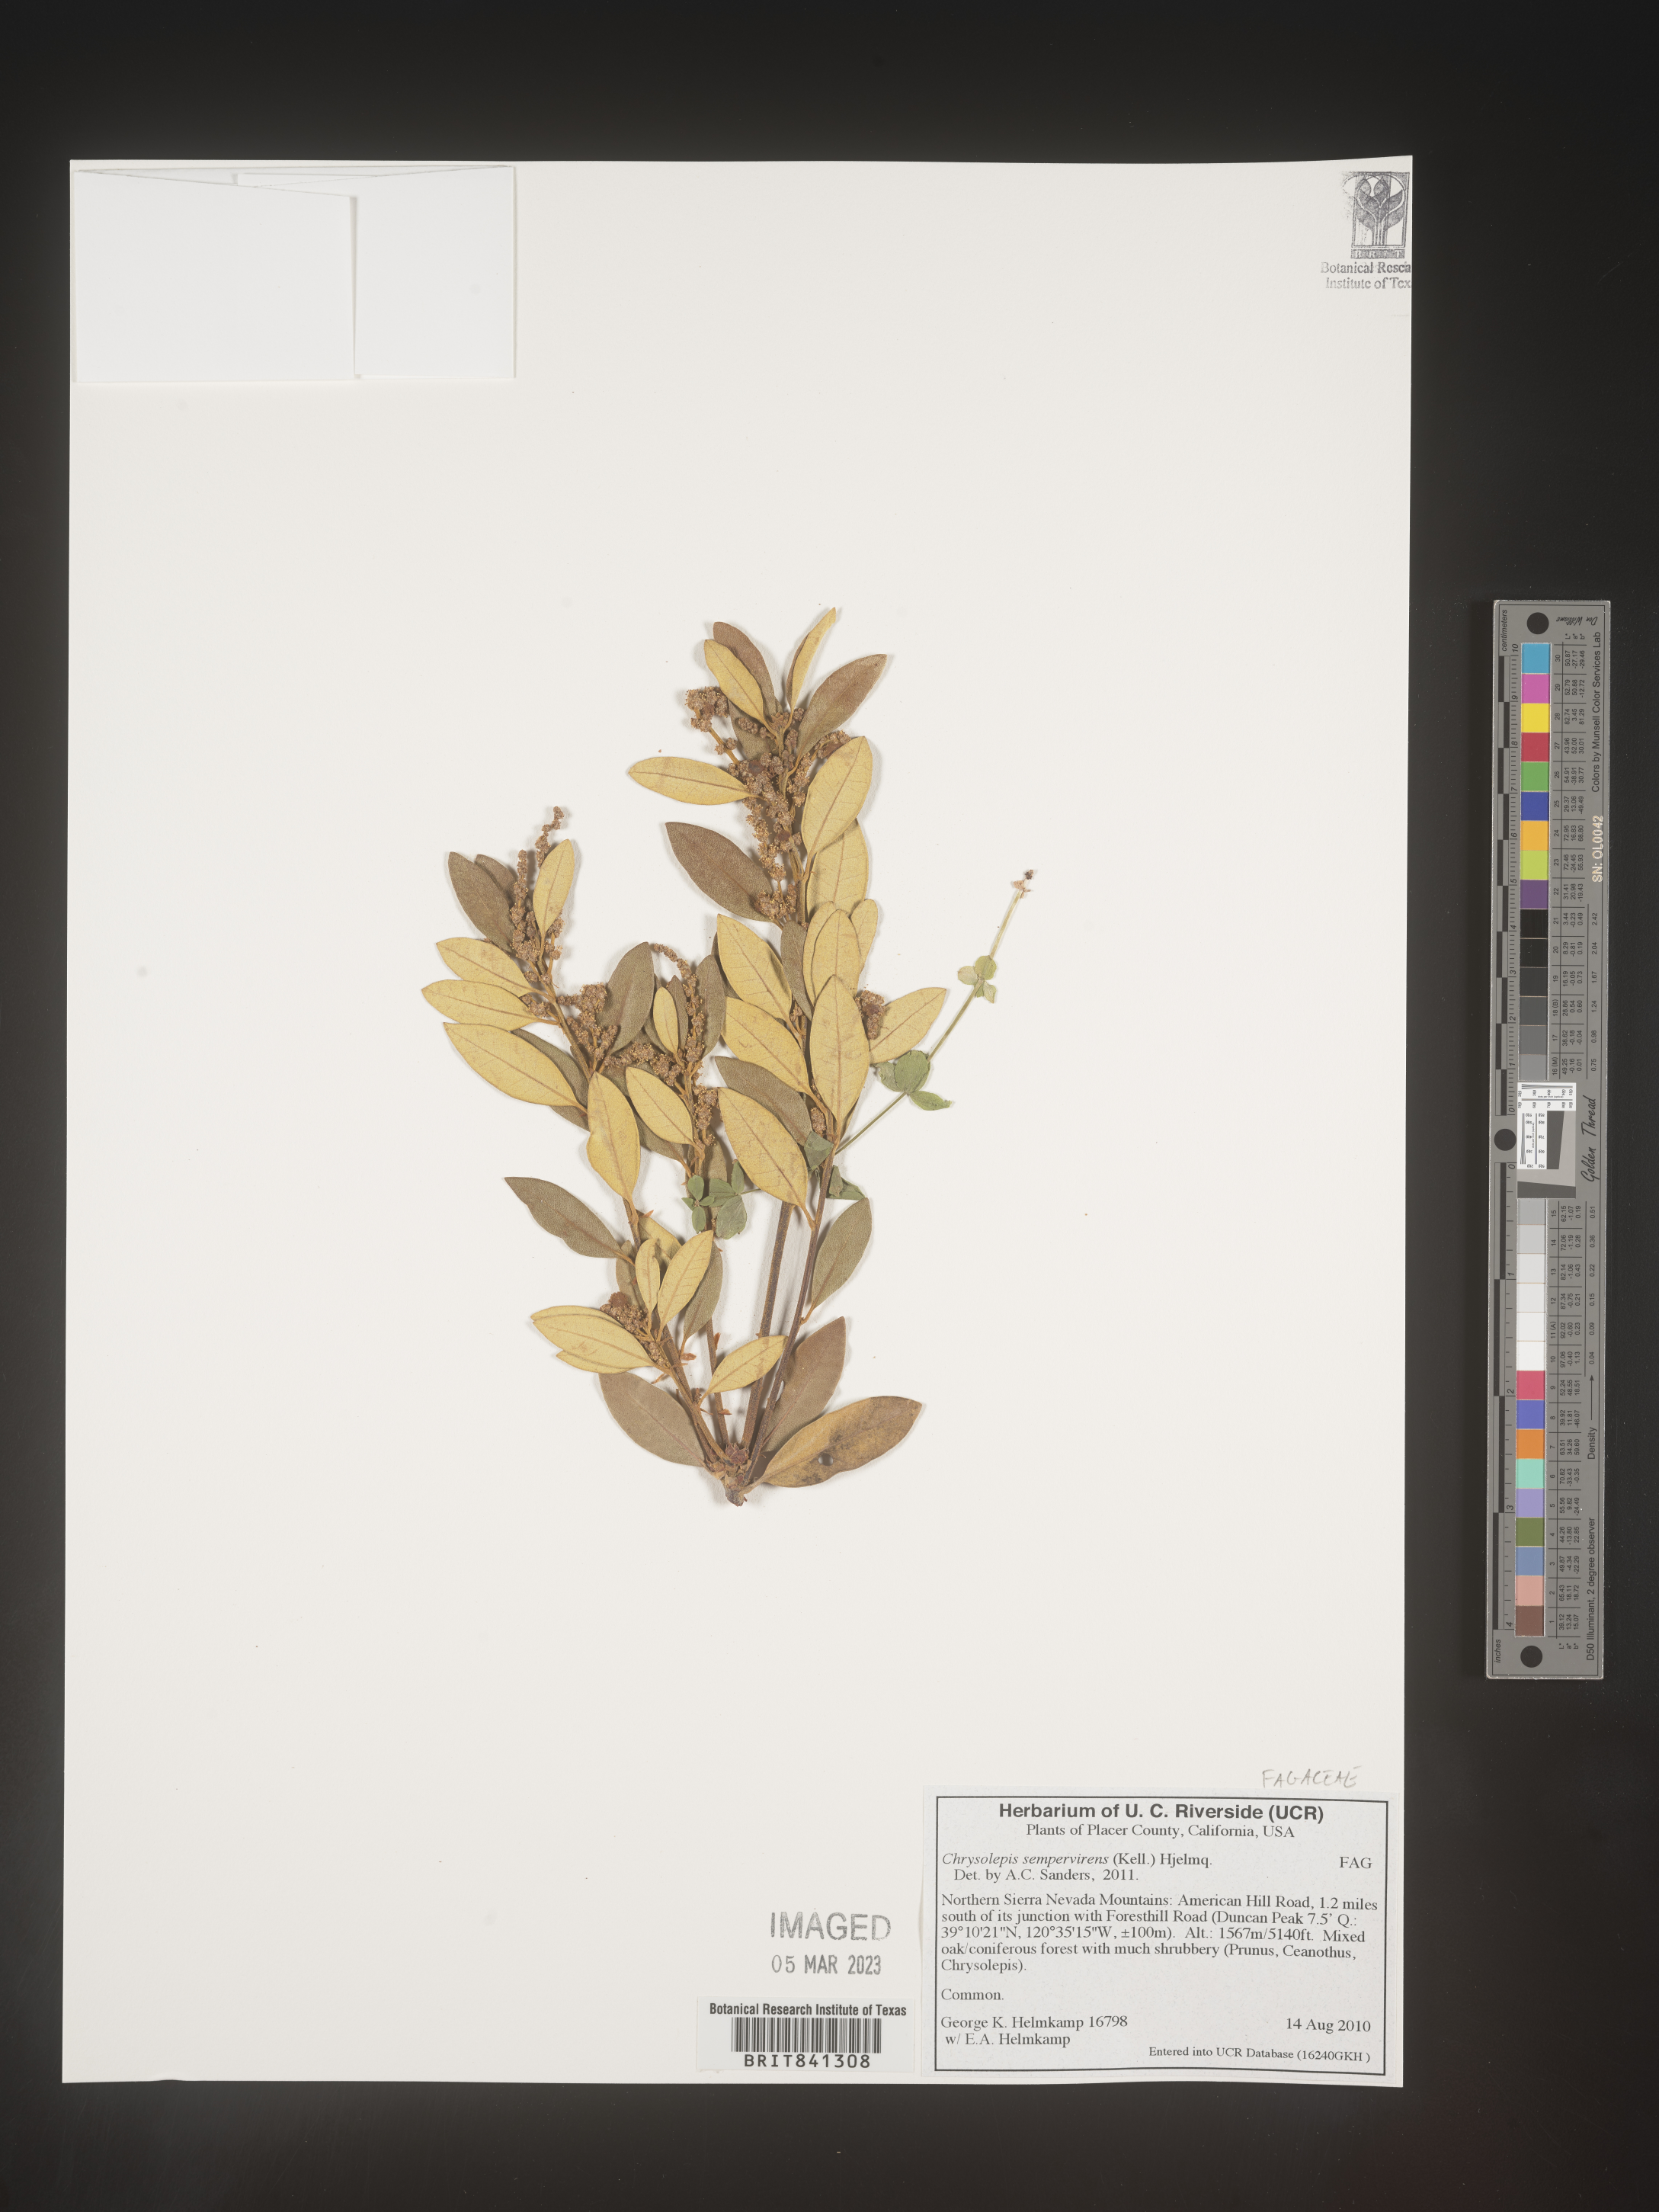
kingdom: Plantae
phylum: Tracheophyta
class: Magnoliopsida
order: Fagales
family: Fagaceae
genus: Chrysolepis
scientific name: Chrysolepis sempervirens
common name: Bush chinquapin
